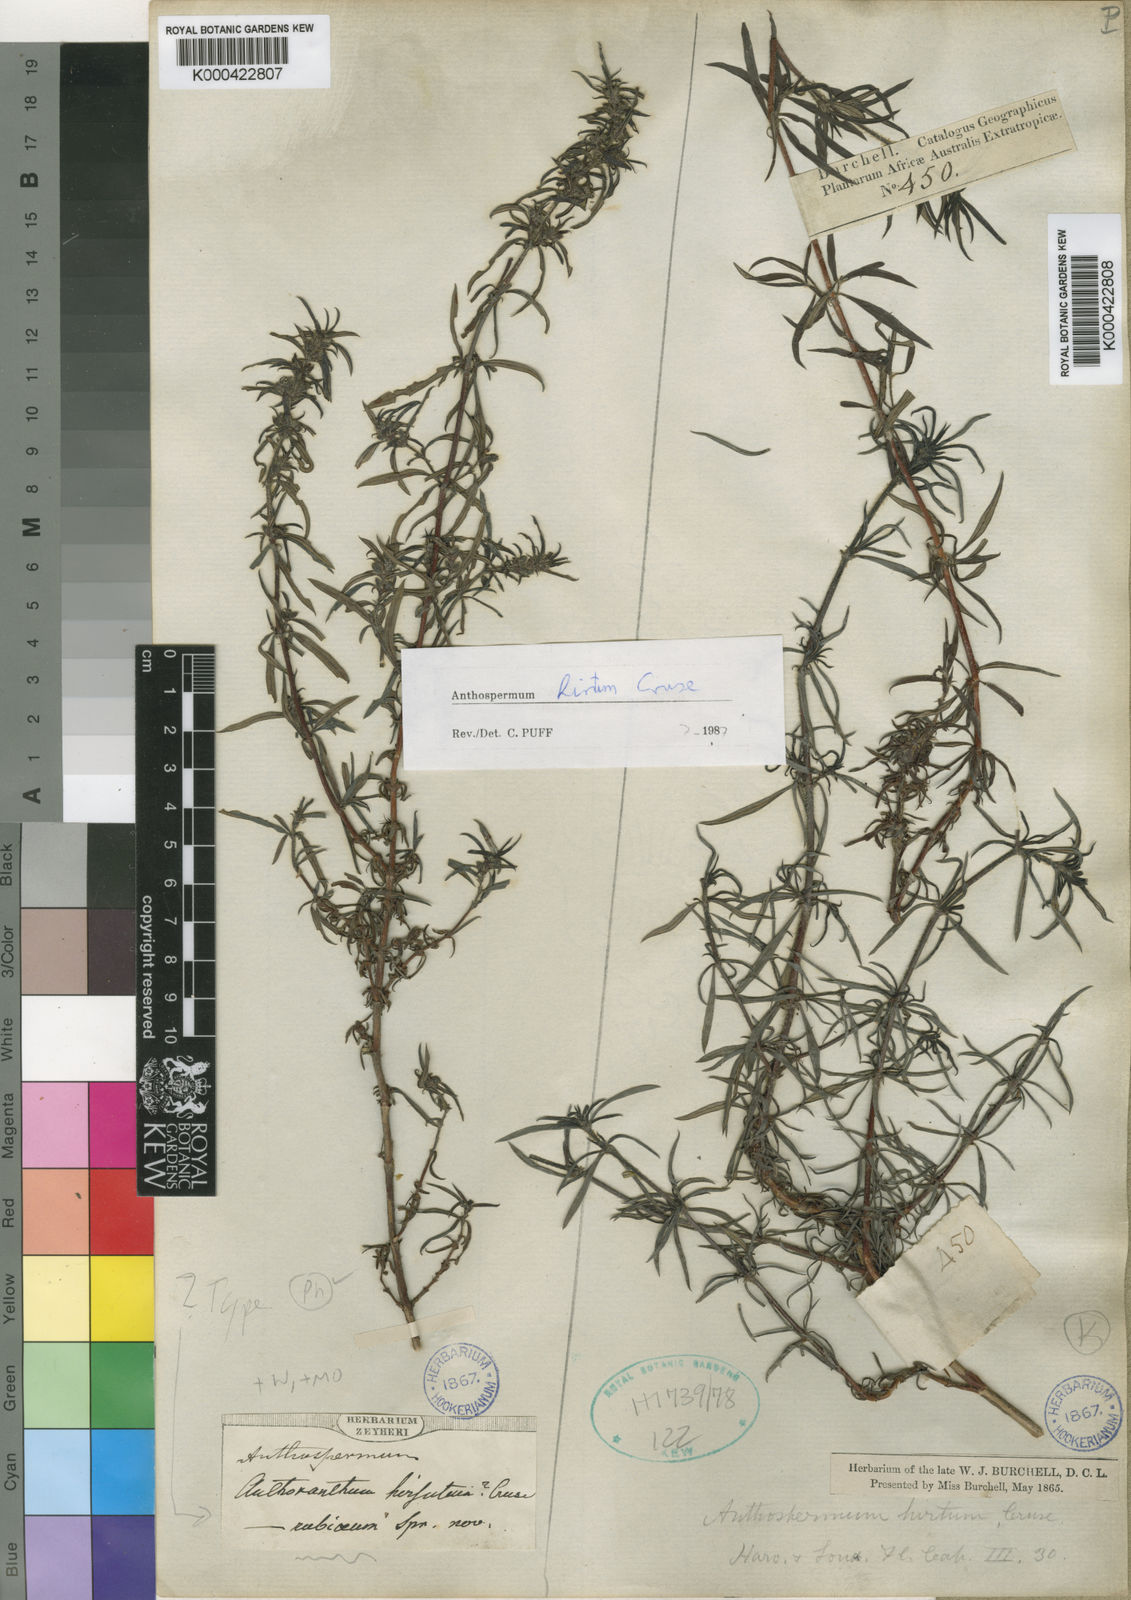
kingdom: Plantae
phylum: Tracheophyta
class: Magnoliopsida
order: Gentianales
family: Rubiaceae
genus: Anthospermum
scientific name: Anthospermum hirtum
